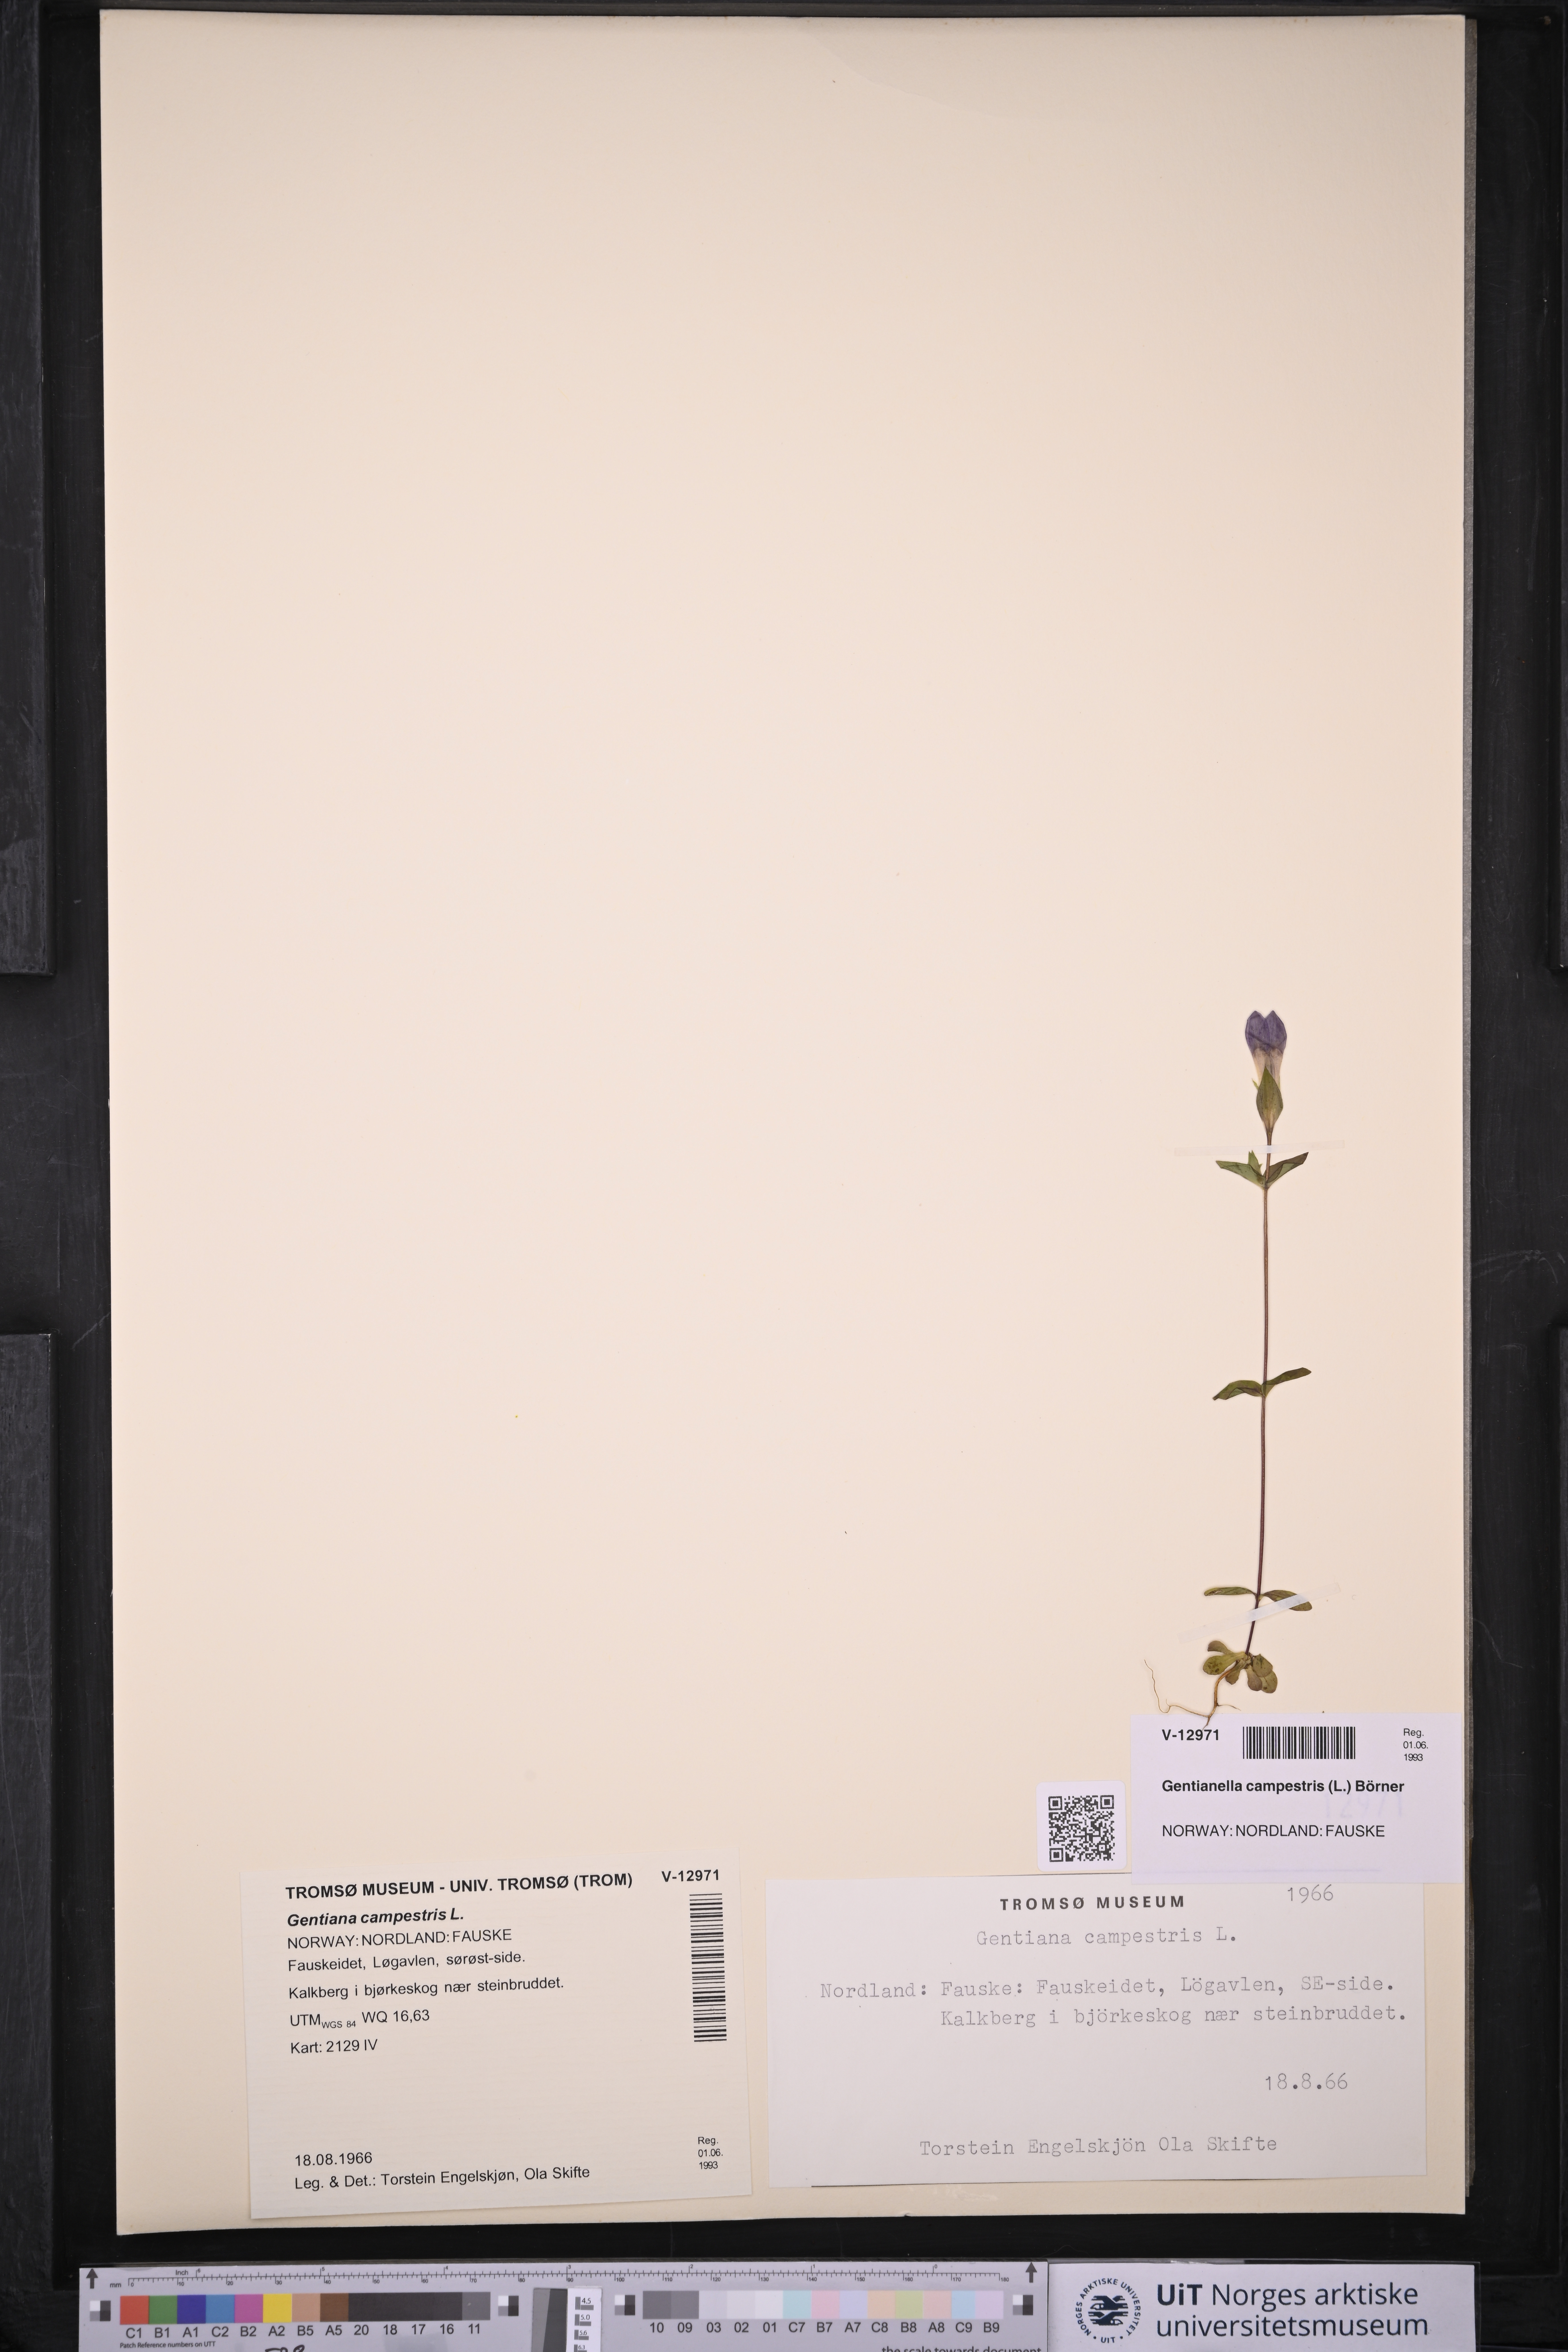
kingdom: Plantae
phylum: Tracheophyta
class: Magnoliopsida
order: Gentianales
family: Gentianaceae
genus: Gentianella
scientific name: Gentianella campestris
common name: Field gentian
